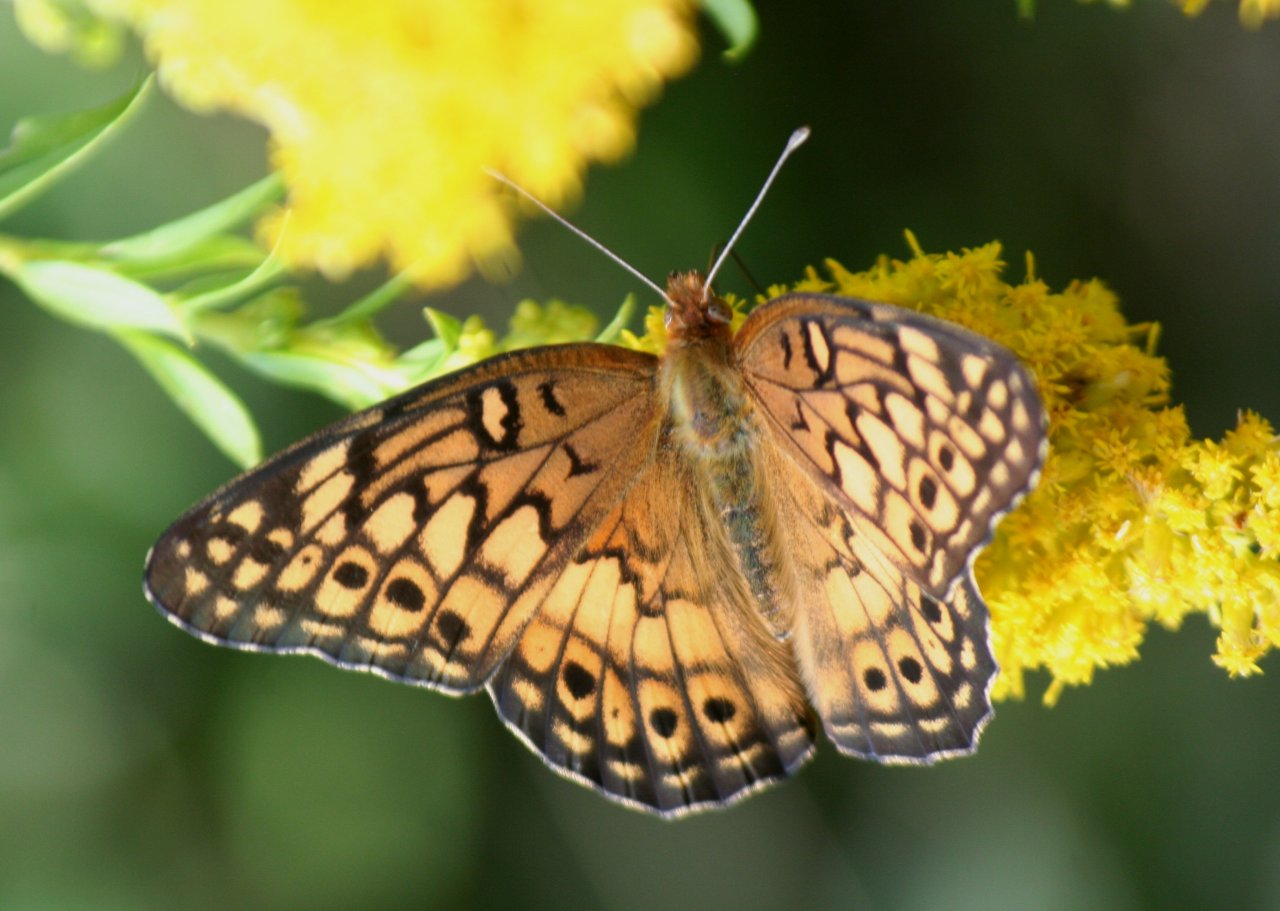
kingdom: Animalia
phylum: Arthropoda
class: Insecta
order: Lepidoptera
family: Nymphalidae
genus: Euptoieta
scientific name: Euptoieta claudia
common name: Variegated Fritillary
